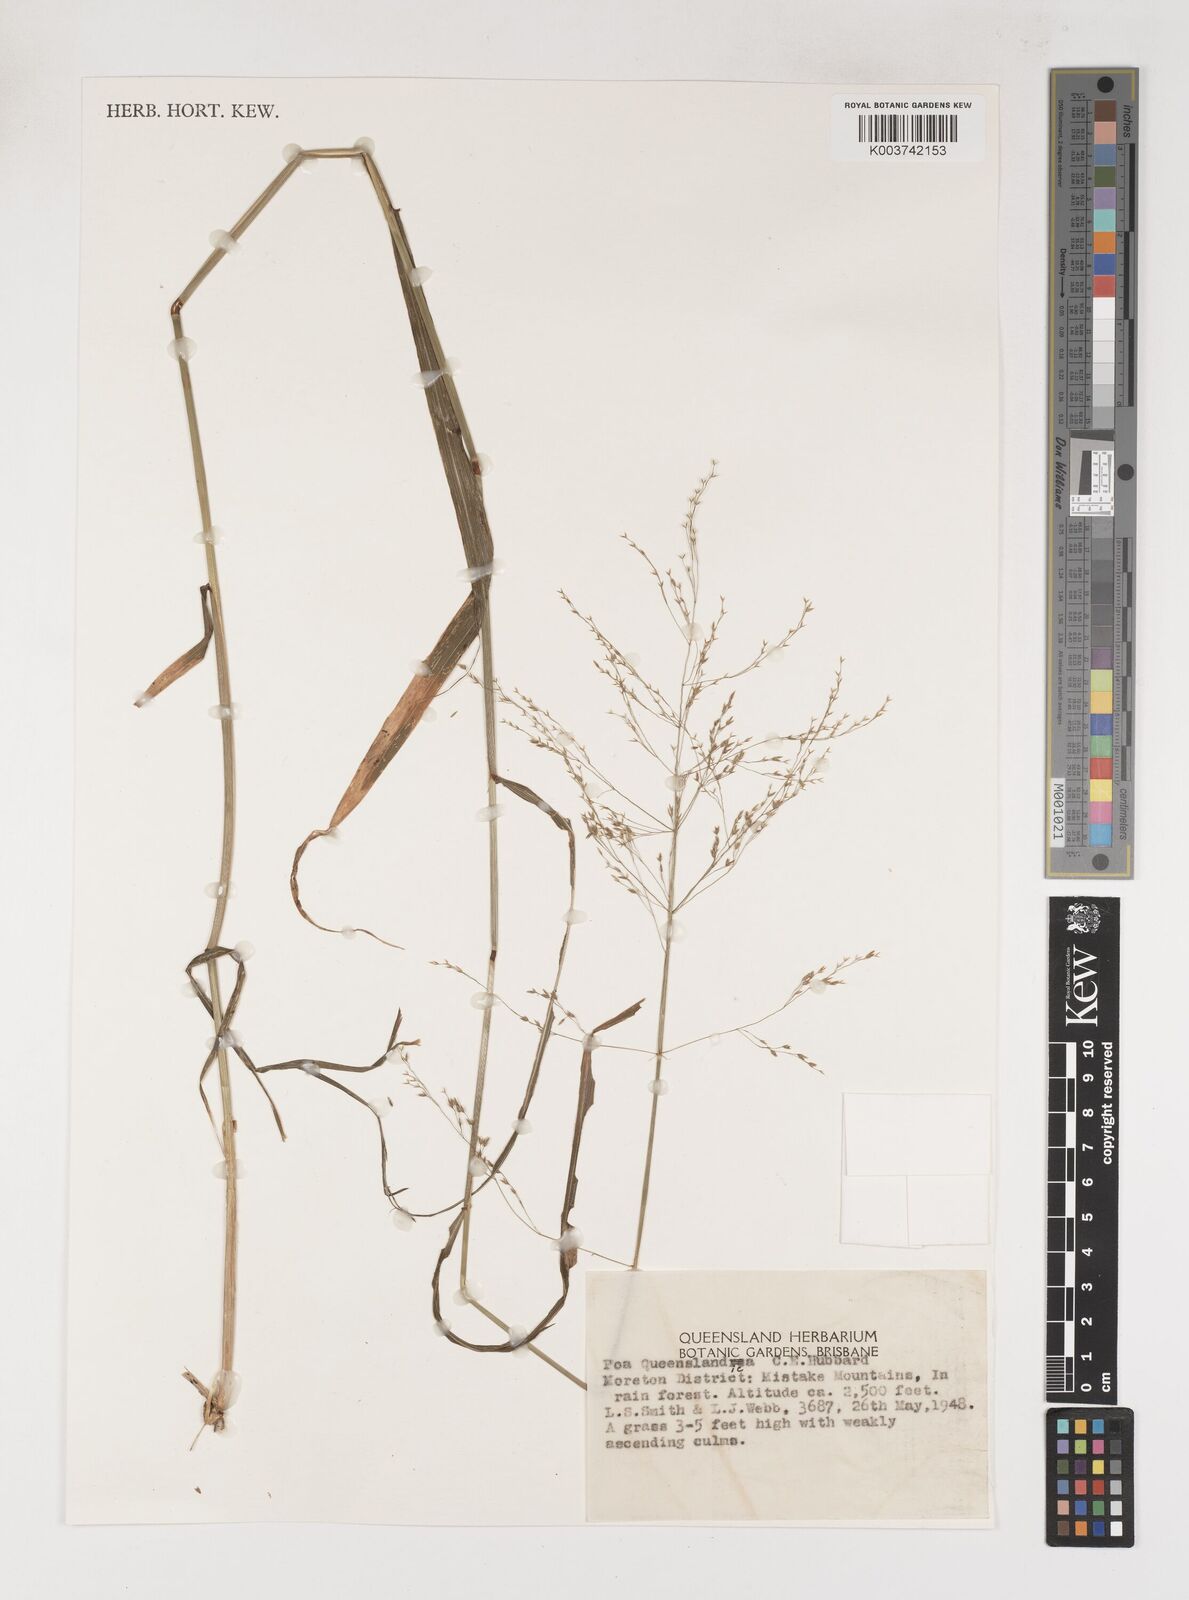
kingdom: Plantae
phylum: Tracheophyta
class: Liliopsida
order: Poales
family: Poaceae
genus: Sylvipoa
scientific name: Sylvipoa queenslandica
